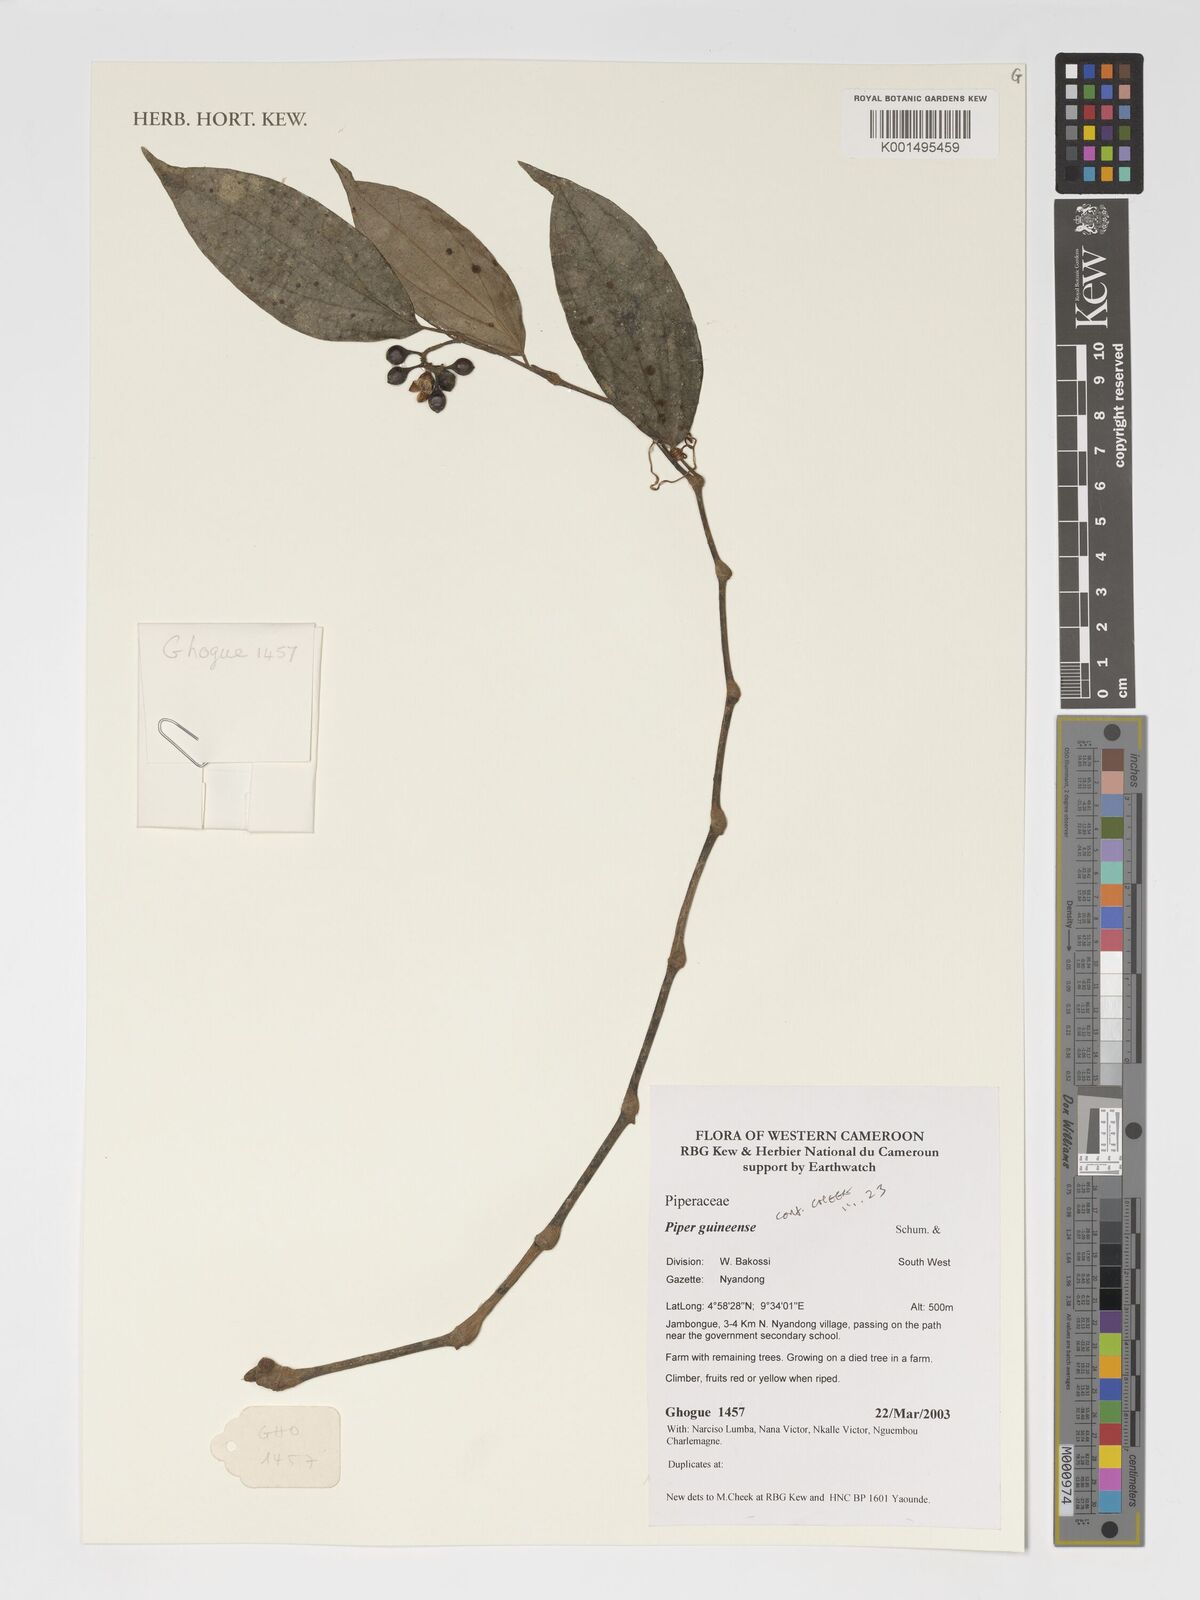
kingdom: Plantae
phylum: Tracheophyta
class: Magnoliopsida
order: Piperales
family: Piperaceae
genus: Piper
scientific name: Piper guineense
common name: Benin pepper
